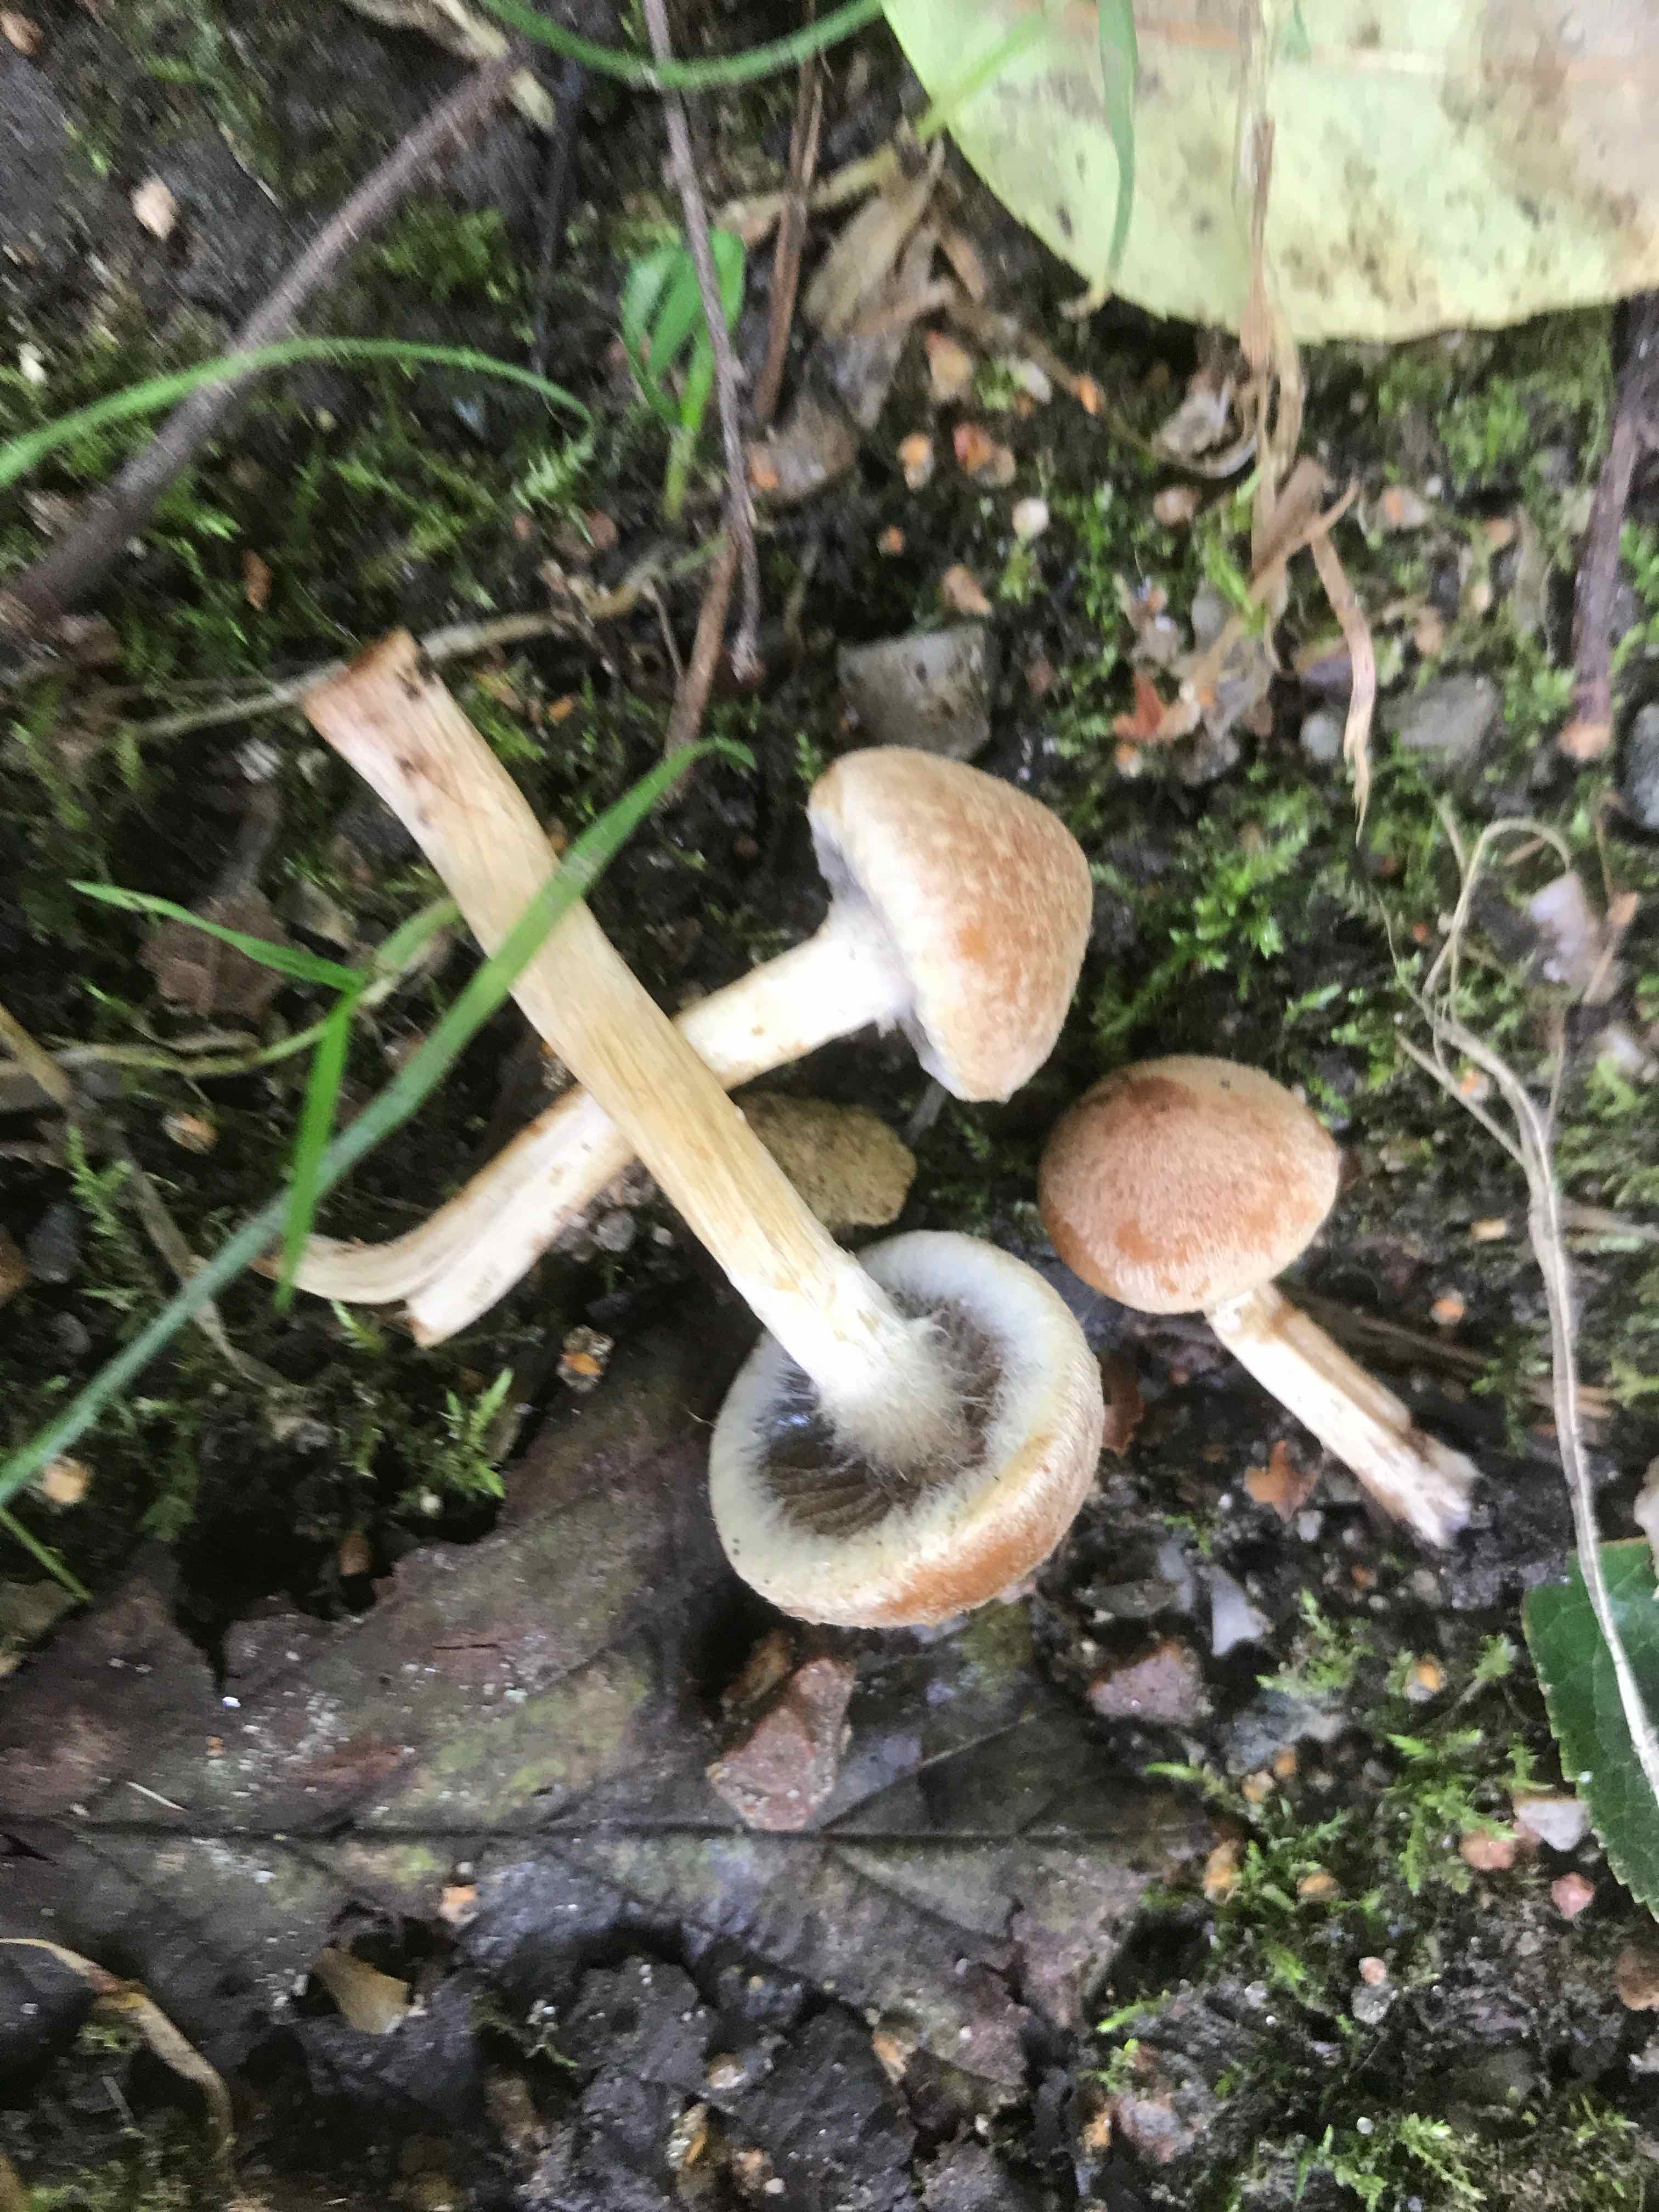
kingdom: Fungi
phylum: Basidiomycota
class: Agaricomycetes
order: Agaricales
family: Inocybaceae
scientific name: Inocybaceae
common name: trævlhatfamilien
